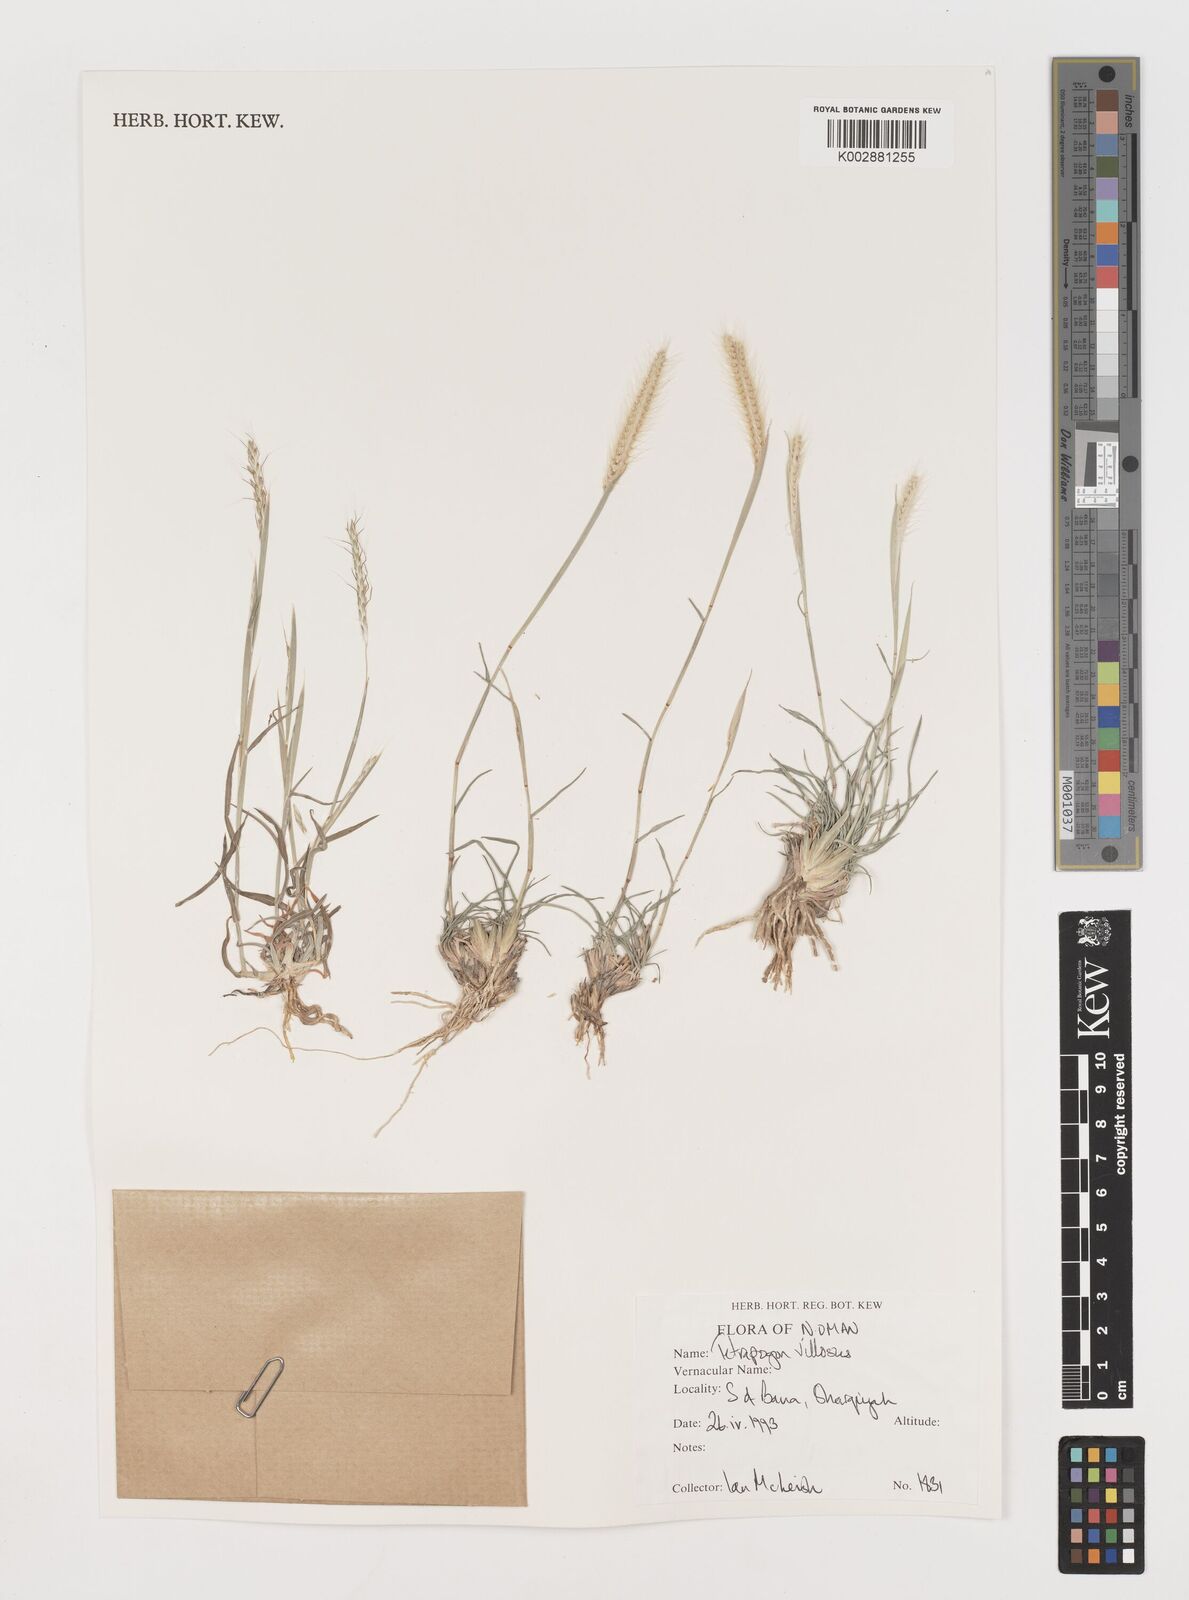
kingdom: Plantae
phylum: Tracheophyta
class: Liliopsida
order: Poales
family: Poaceae
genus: Tetrapogon
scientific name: Tetrapogon villosus
